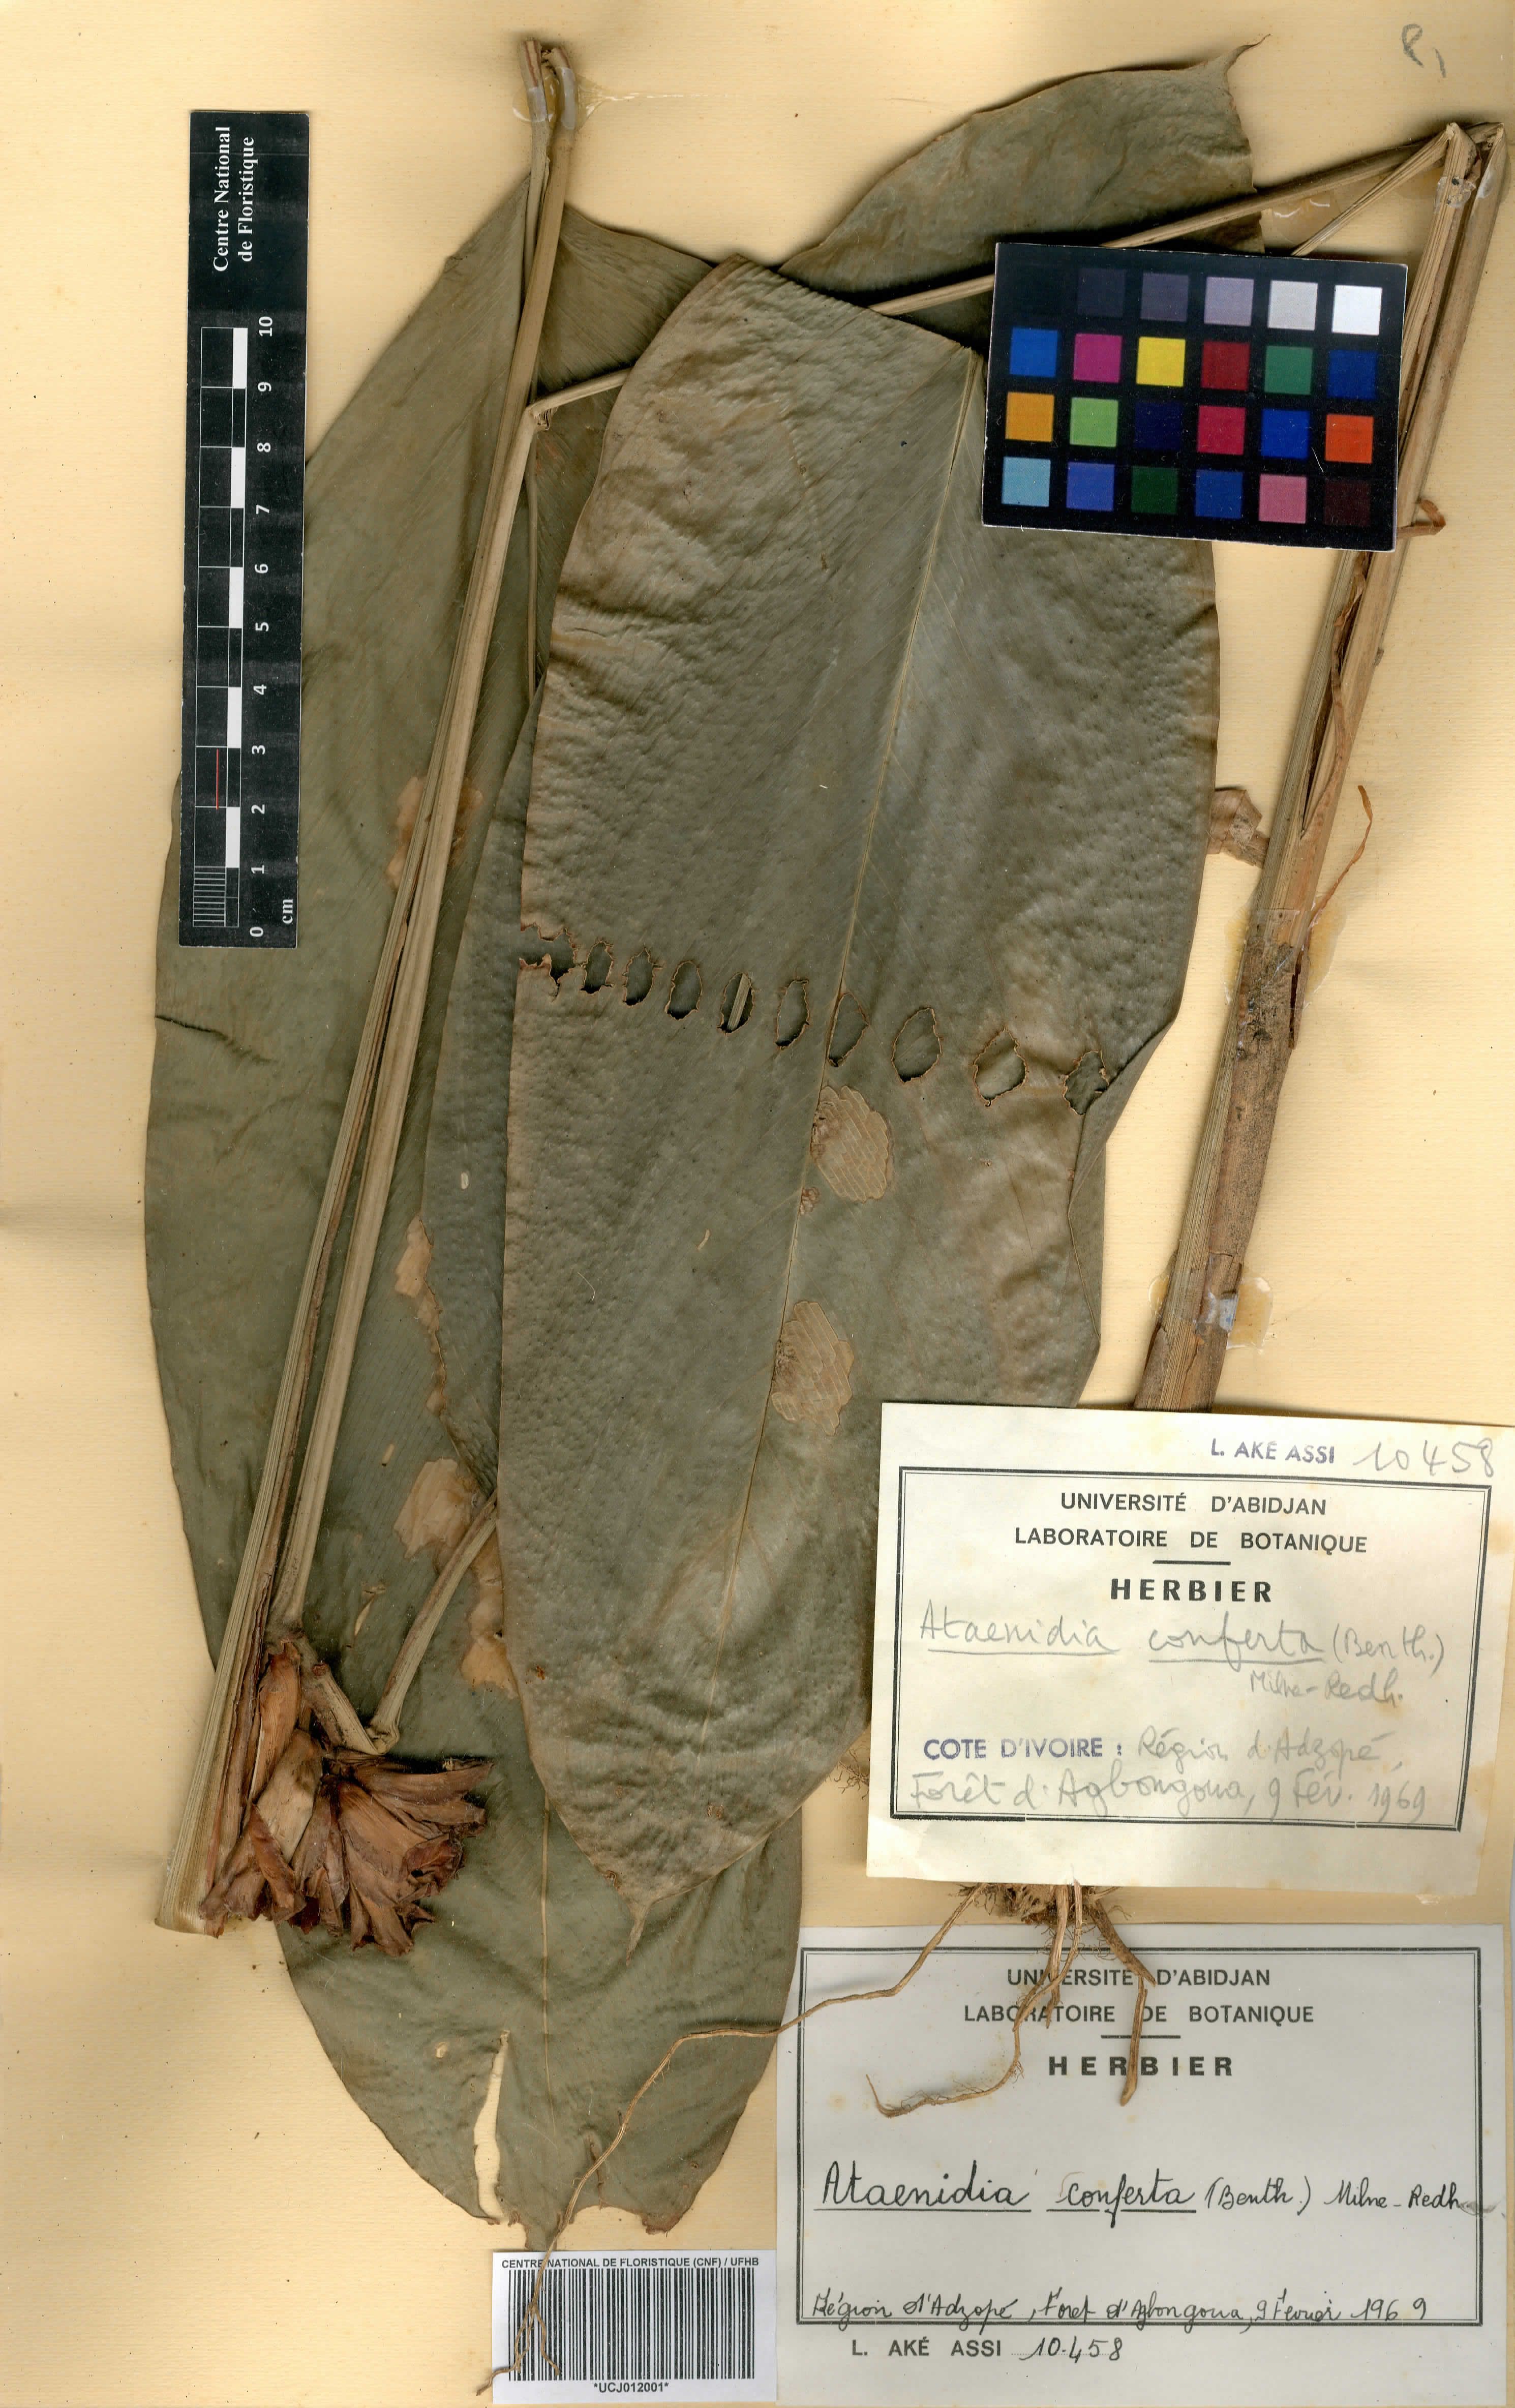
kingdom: Plantae
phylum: Tracheophyta
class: Liliopsida
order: Zingiberales
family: Marantaceae
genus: Marantochloa
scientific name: Marantochloa conferta
